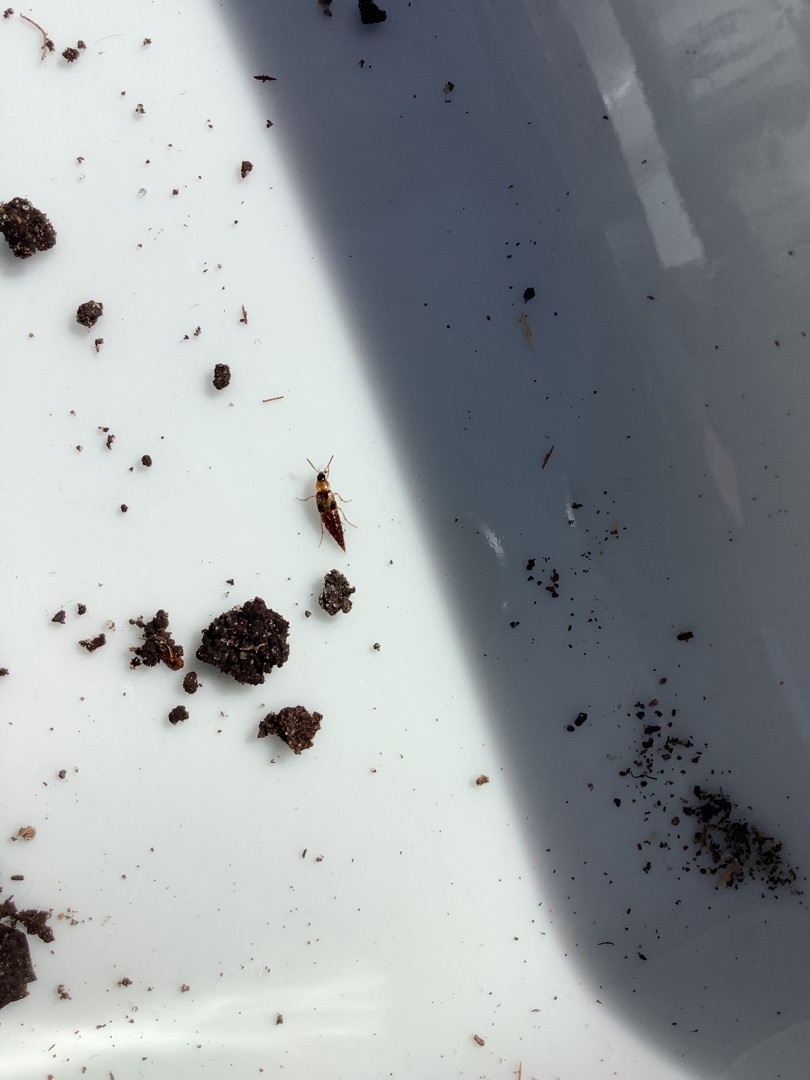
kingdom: Animalia
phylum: Arthropoda
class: Insecta
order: Coleoptera
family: Elateridae
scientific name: Elateridae
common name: Smældere
